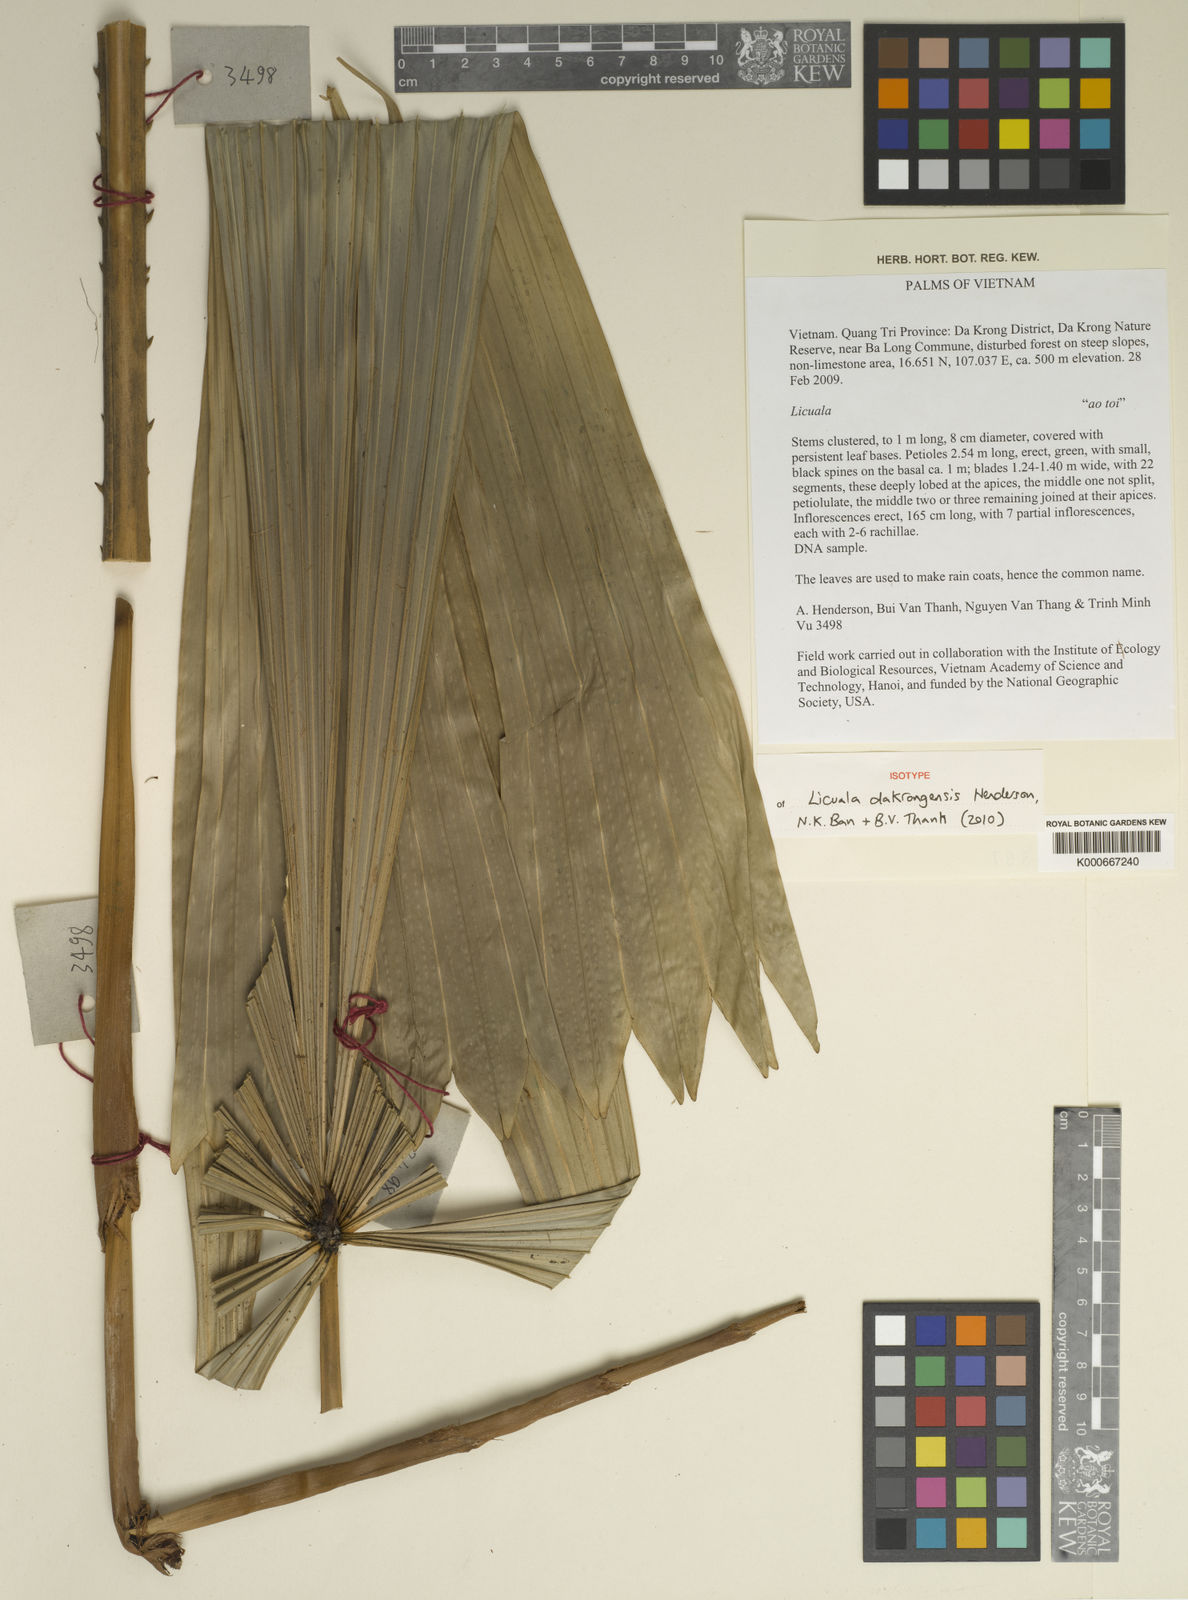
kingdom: Plantae
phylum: Tracheophyta
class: Liliopsida
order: Arecales
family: Arecaceae
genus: Licuala
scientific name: Licuala dakrongensis
